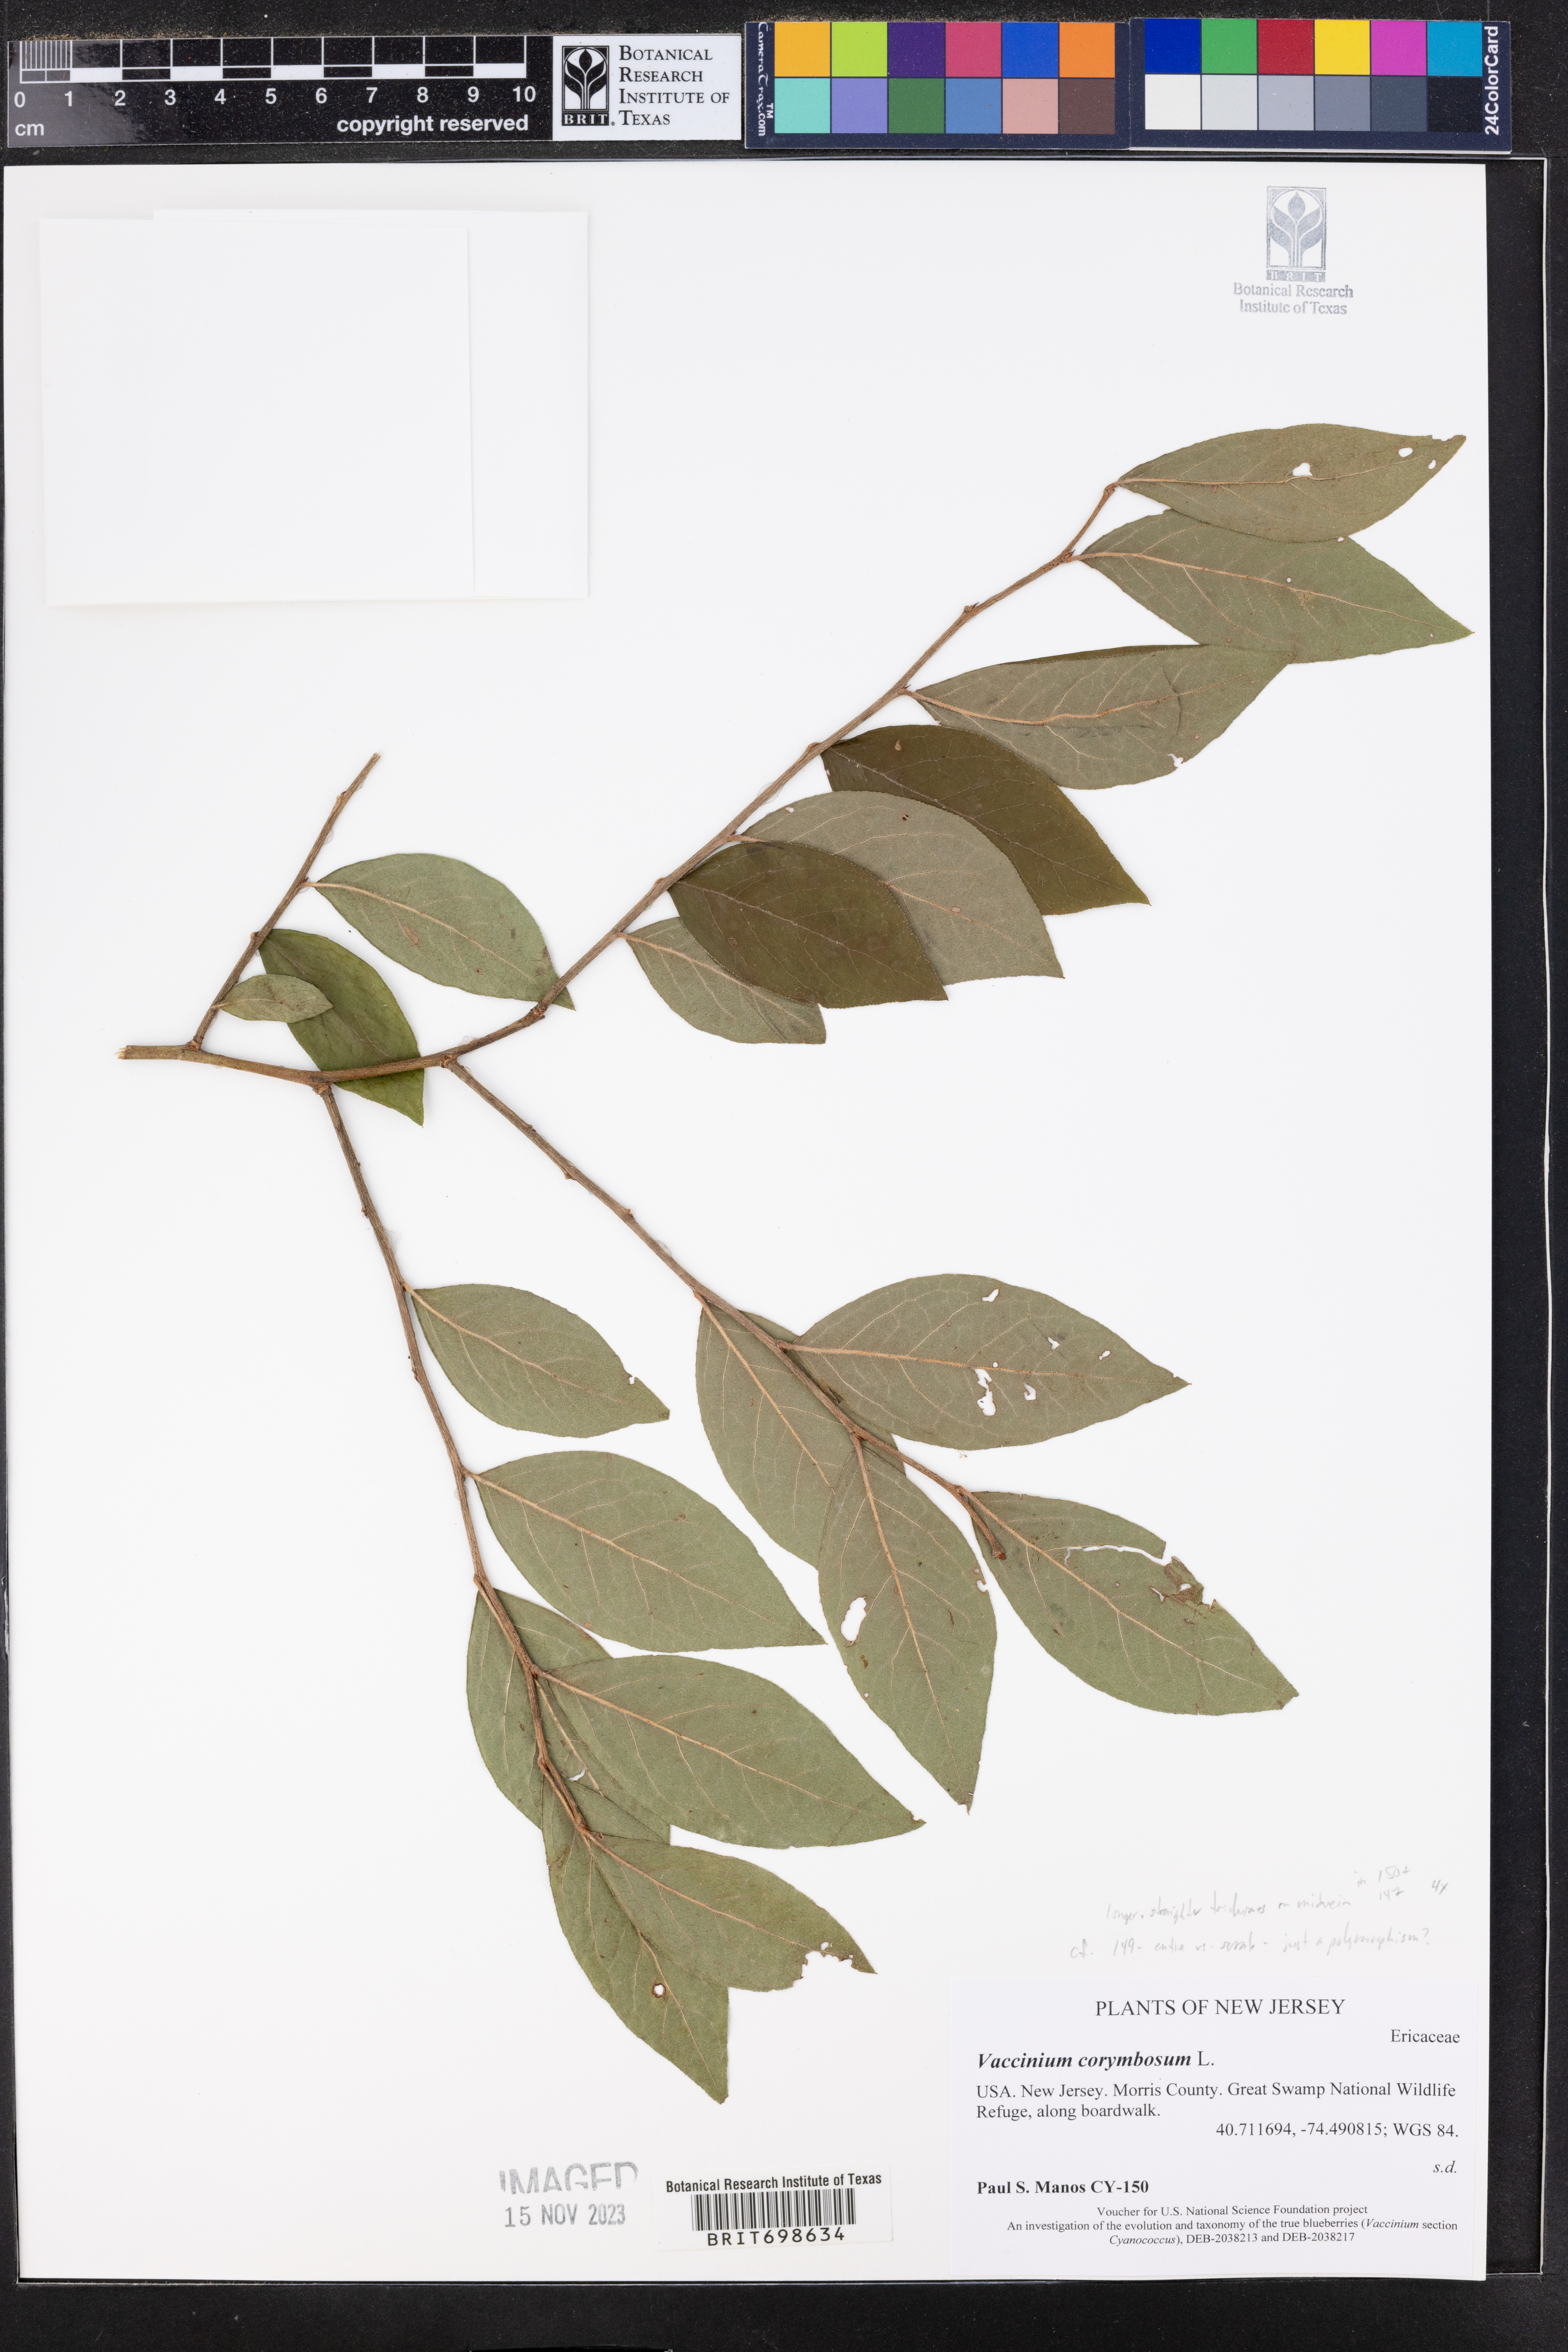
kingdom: Plantae
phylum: Tracheophyta
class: Magnoliopsida
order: Ericales
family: Ericaceae
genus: Vaccinium
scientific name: Vaccinium corymbosum
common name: Blueberry
